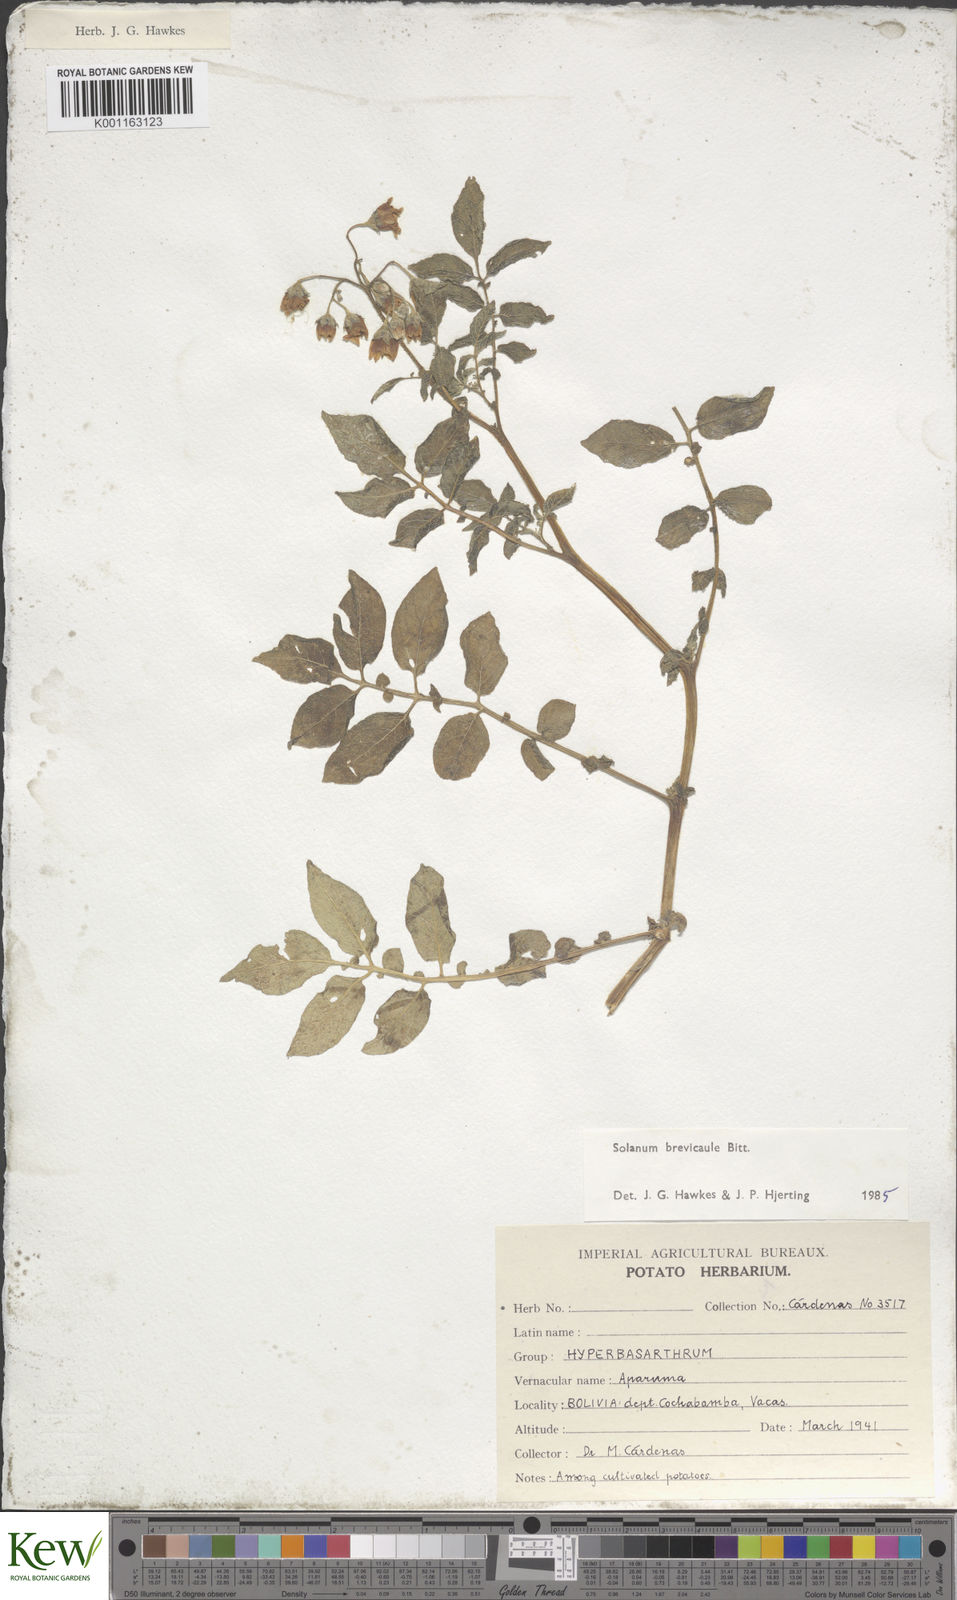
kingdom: Plantae
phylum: Tracheophyta
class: Magnoliopsida
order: Solanales
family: Solanaceae
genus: Solanum
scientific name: Solanum brevicaule
